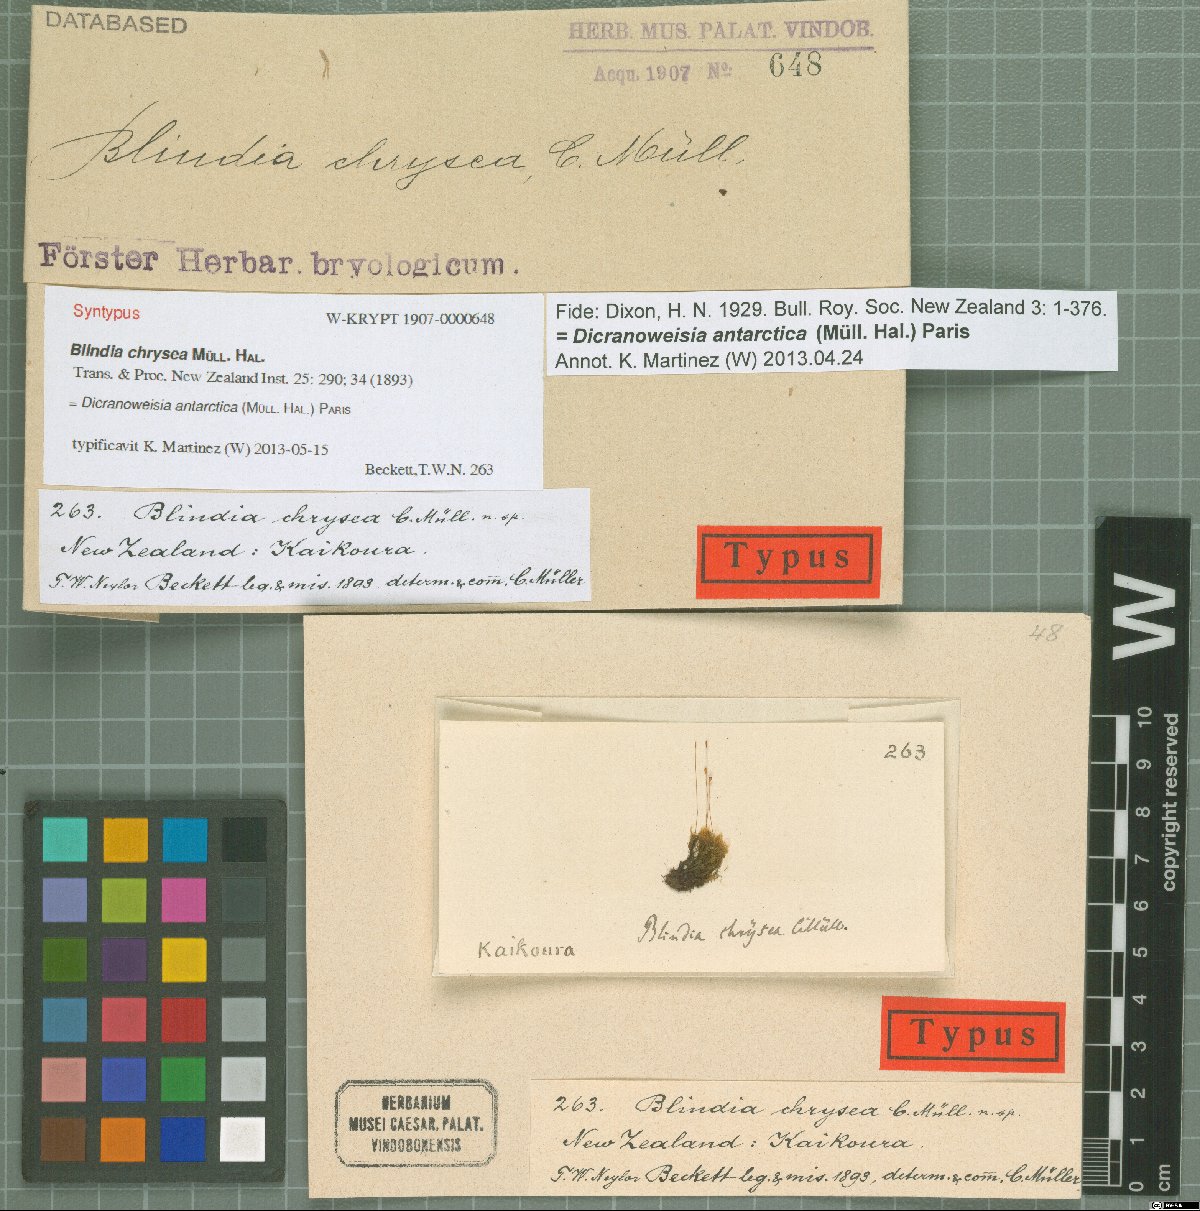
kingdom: Plantae
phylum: Bryophyta
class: Bryopsida
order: Grimmiales
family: Seligeriaceae
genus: Blindia
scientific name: Blindia
